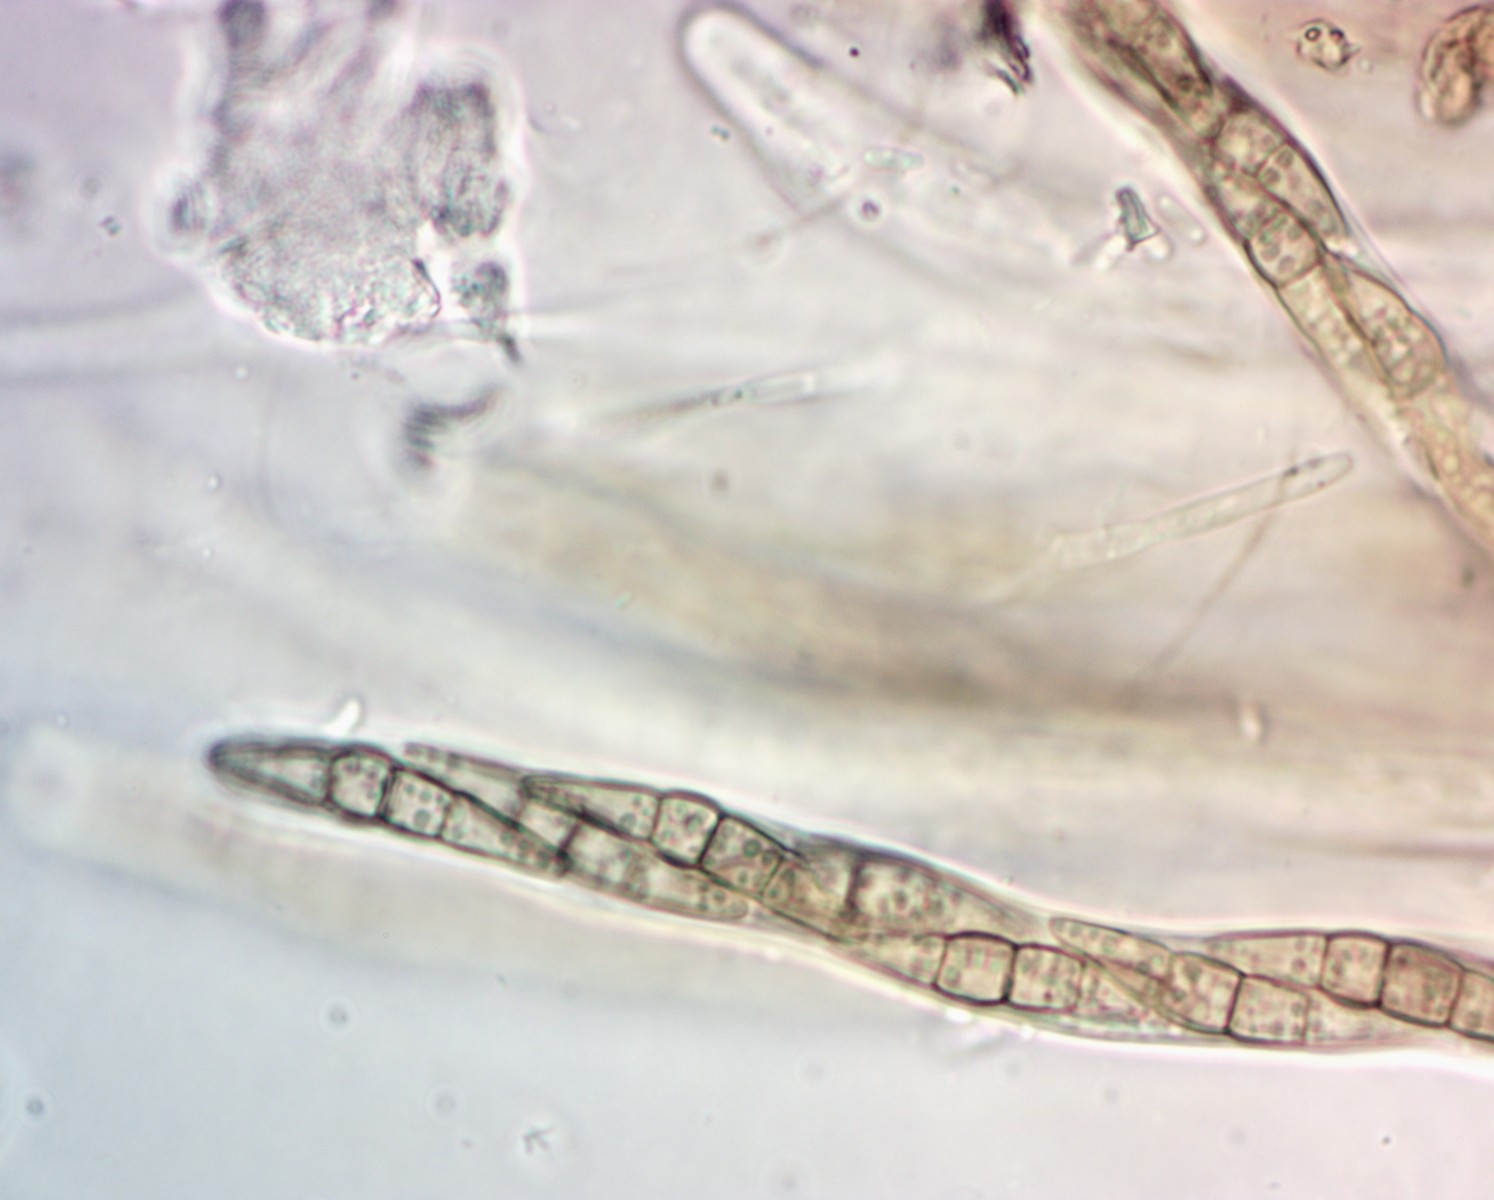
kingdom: Fungi
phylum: Ascomycota
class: Dothideomycetes
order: Pleosporales
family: Leptosphaeriaceae
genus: Leptosphaeria
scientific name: Leptosphaeria doliolum
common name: skærm-kulkegle
